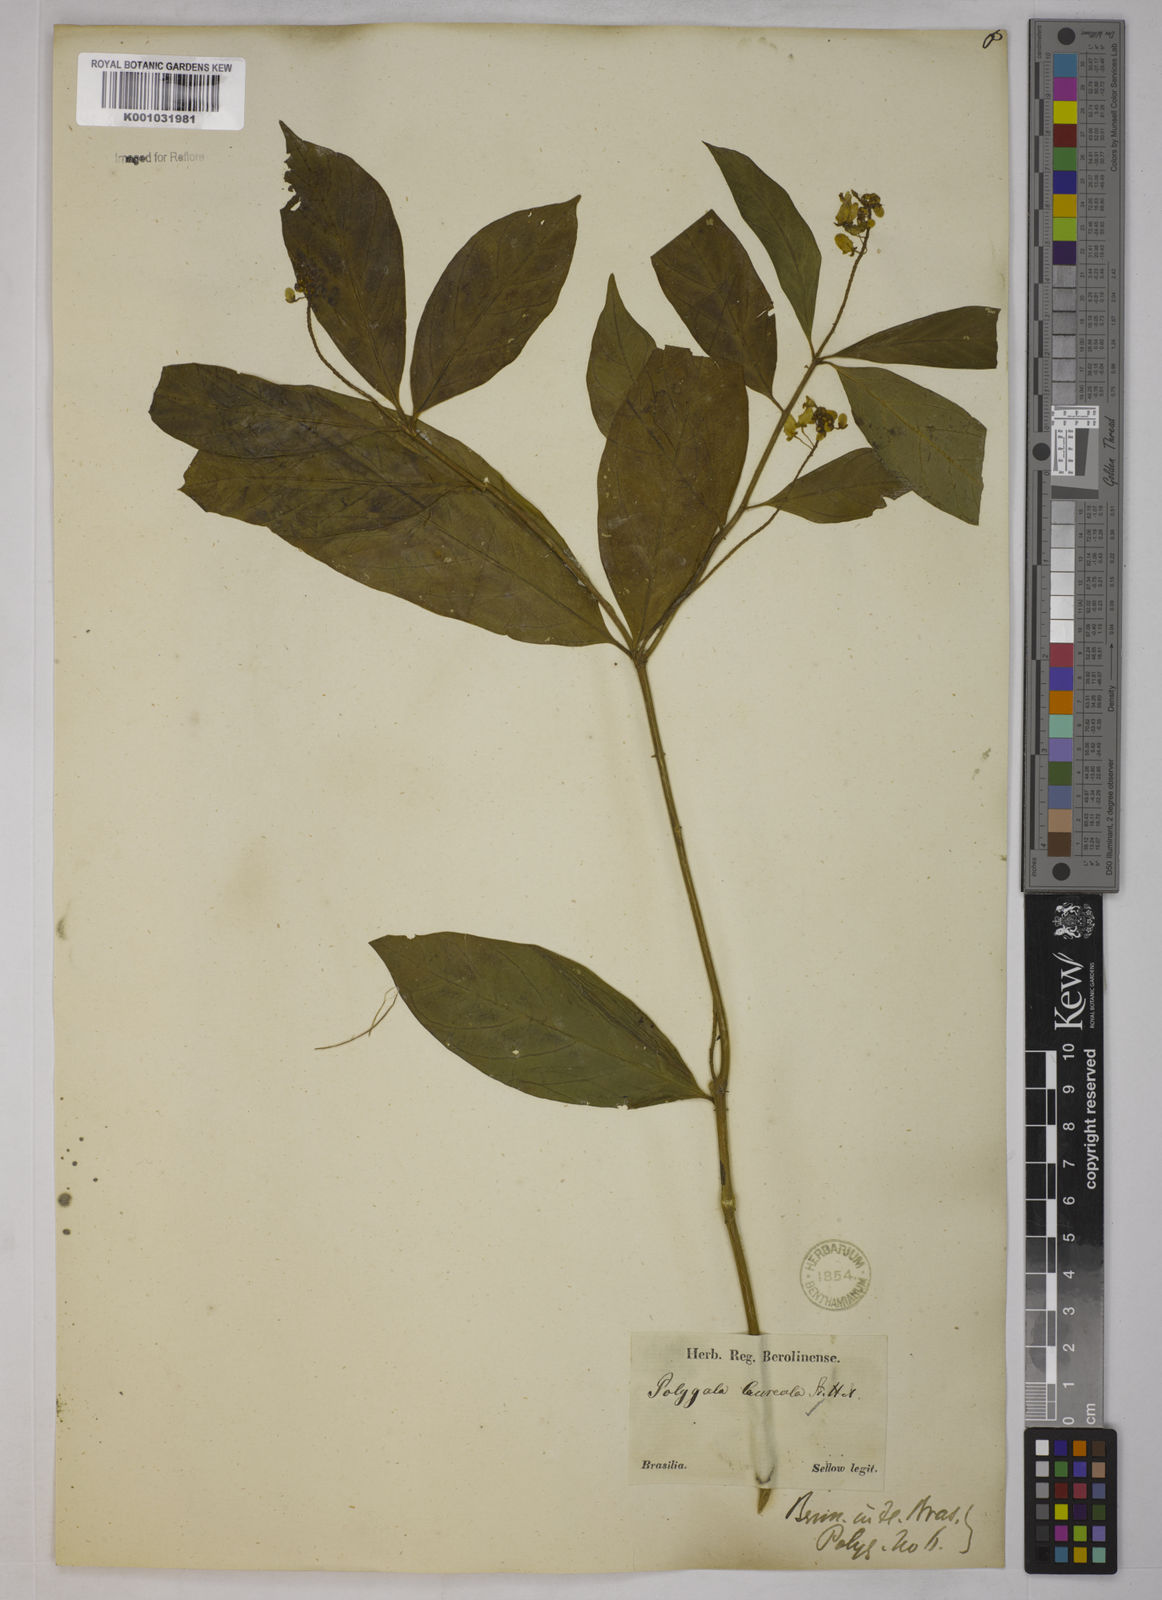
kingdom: Plantae
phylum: Tracheophyta
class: Magnoliopsida
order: Fabales
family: Polygalaceae
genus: Caamembeca
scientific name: Caamembeca salicifolia
